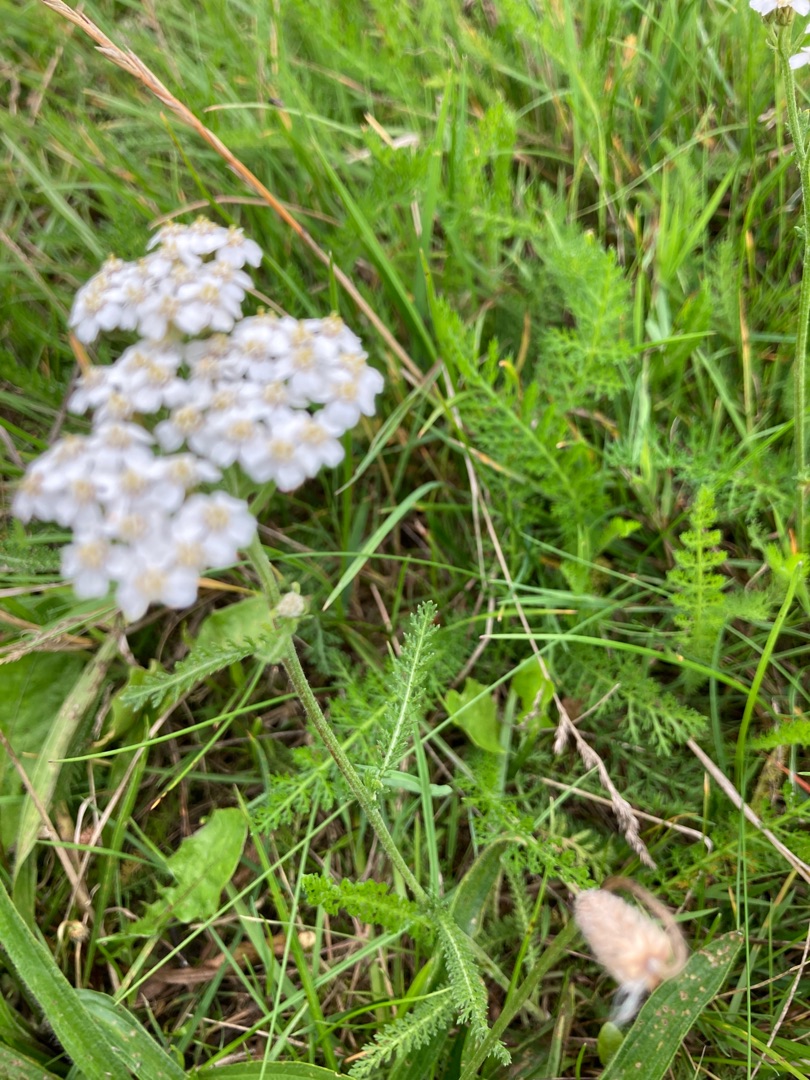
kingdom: Plantae
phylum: Tracheophyta
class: Magnoliopsida
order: Asterales
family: Asteraceae
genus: Achillea
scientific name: Achillea millefolium
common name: Almindelig røllike
